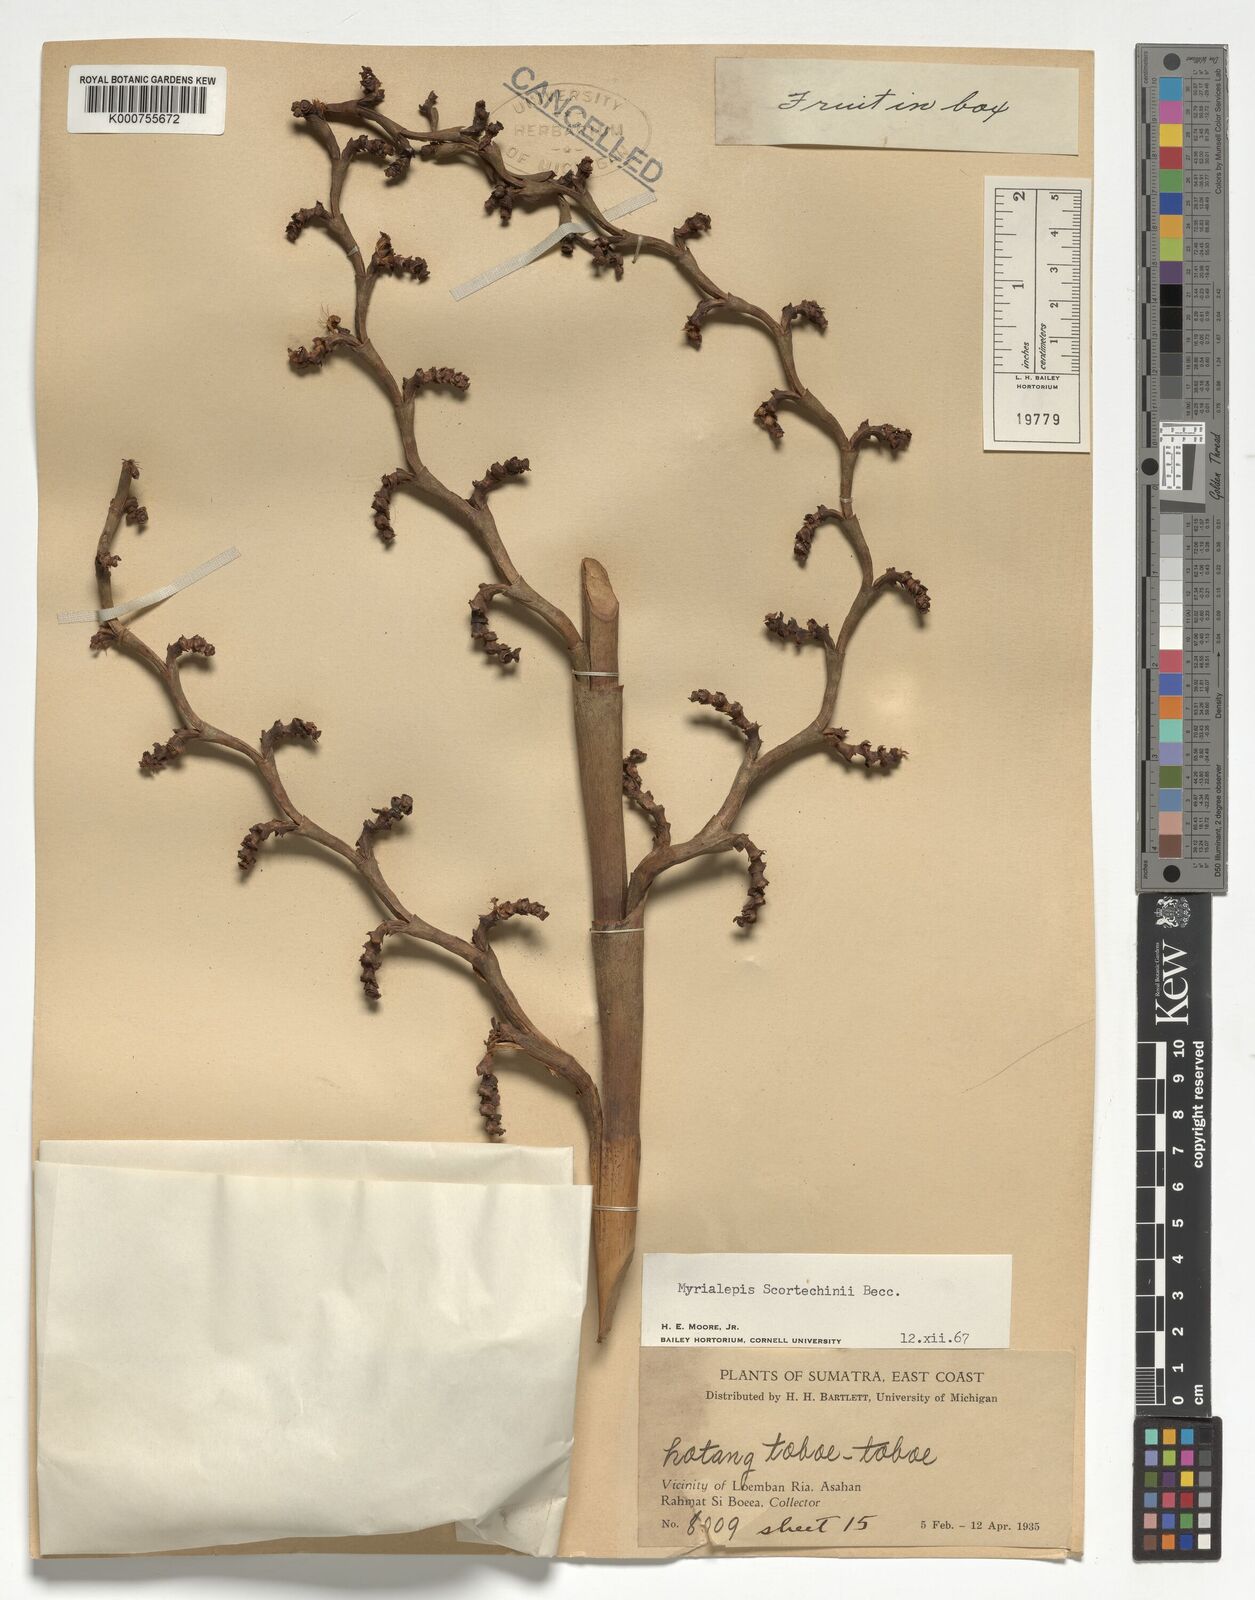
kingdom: Plantae
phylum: Tracheophyta
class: Liliopsida
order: Arecales
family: Arecaceae
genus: Myrialepis
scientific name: Myrialepis paradoxa
